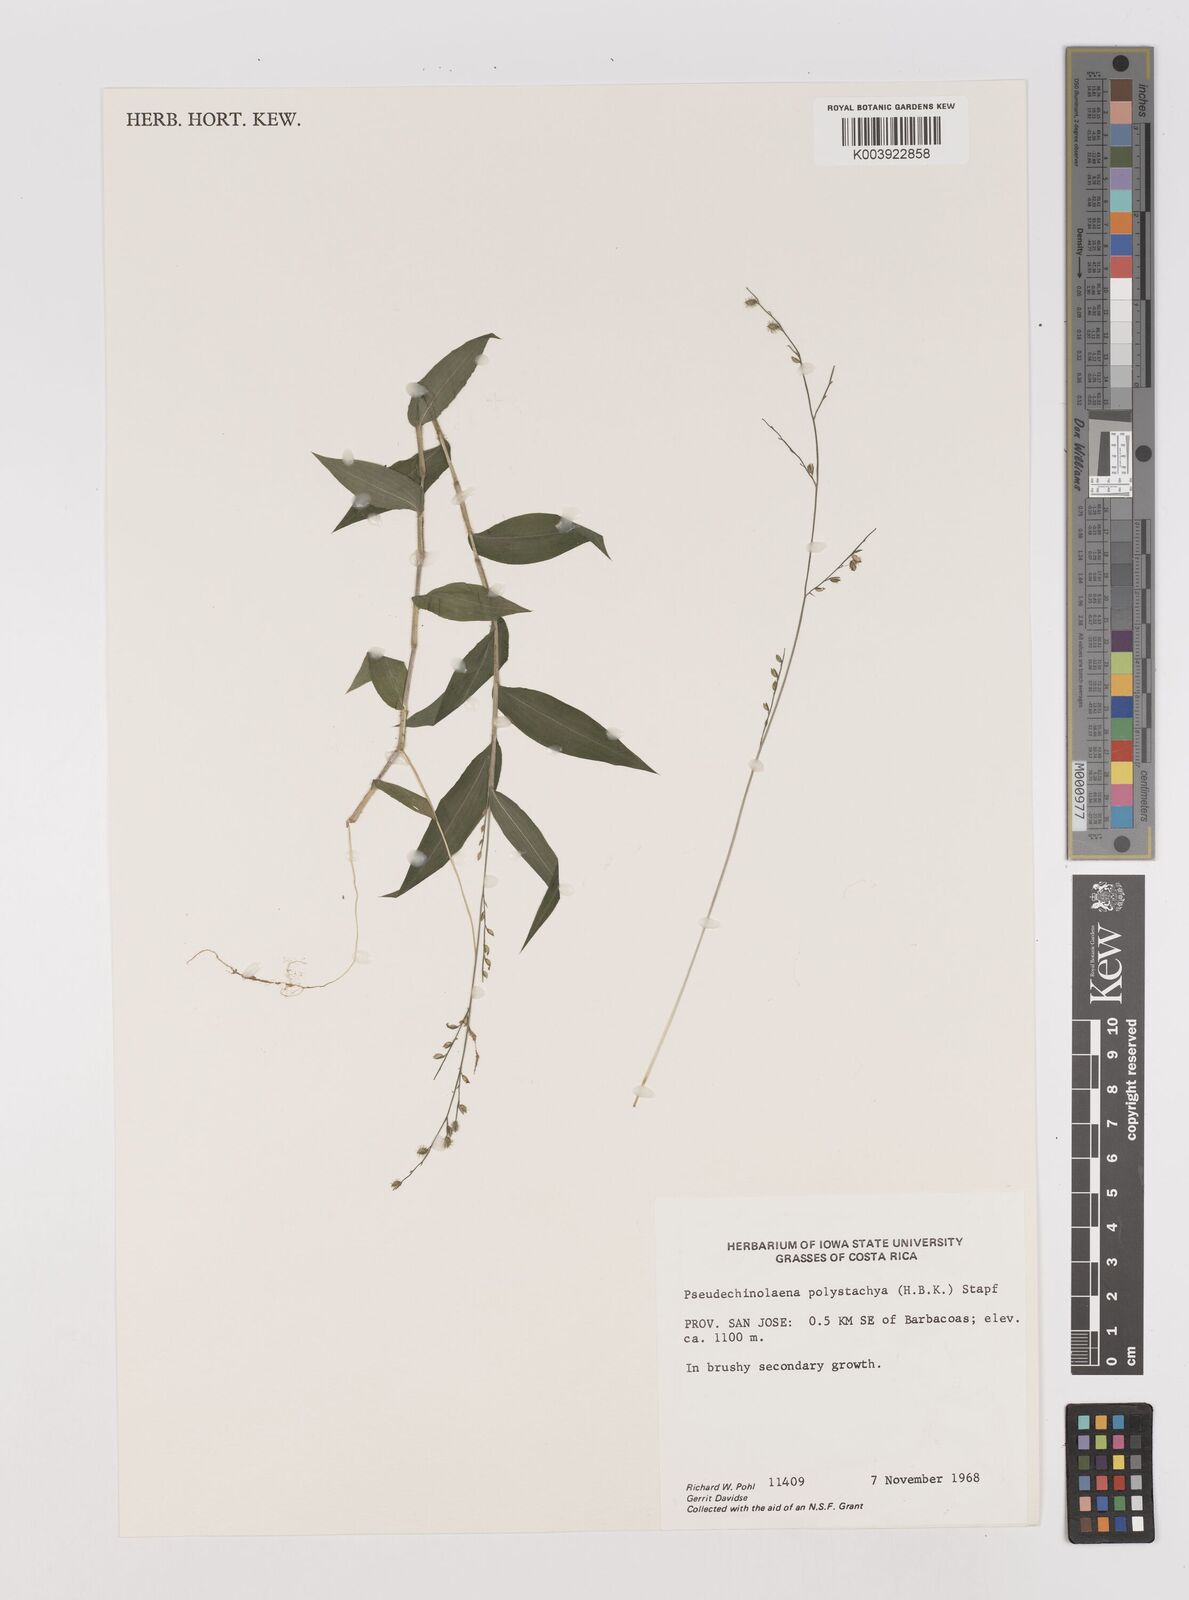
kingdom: Plantae
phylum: Tracheophyta
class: Liliopsida
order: Poales
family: Poaceae
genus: Pseudechinolaena
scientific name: Pseudechinolaena polystachya
